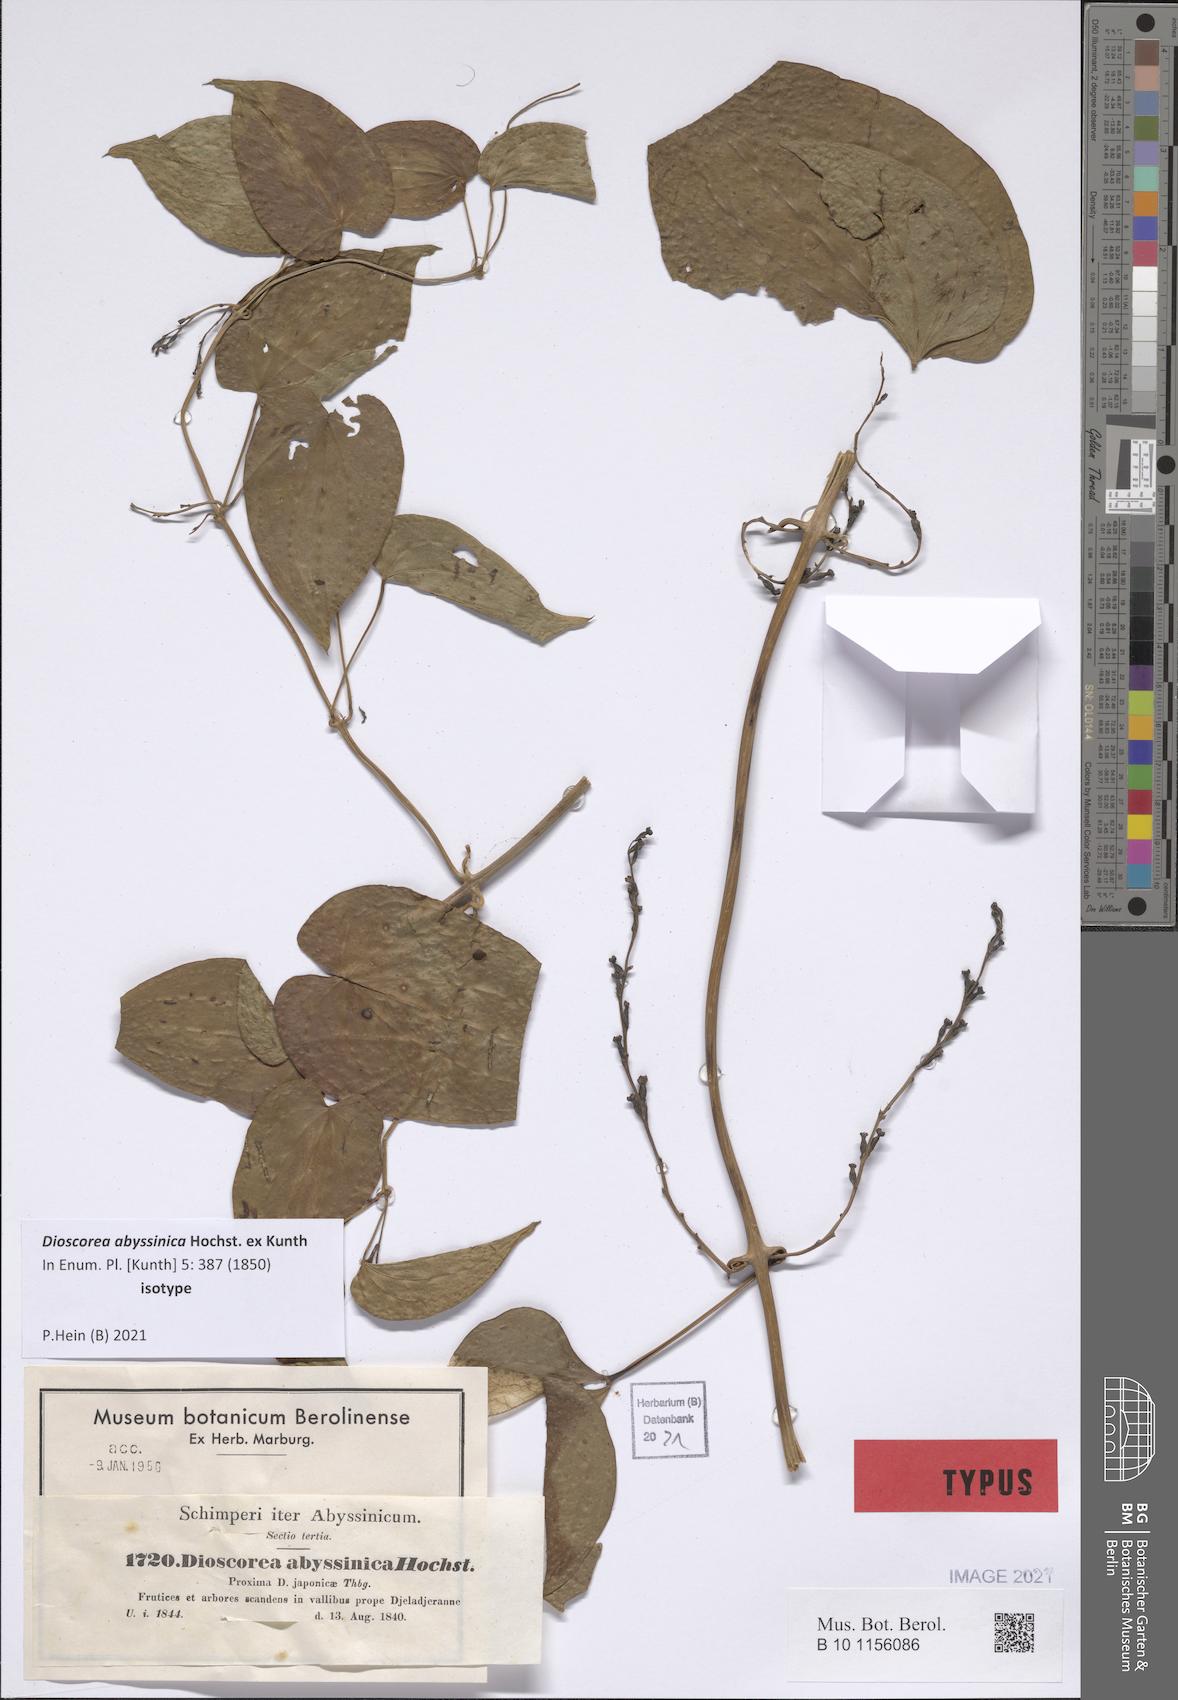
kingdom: Plantae
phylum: Tracheophyta
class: Liliopsida
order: Dioscoreales
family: Dioscoreaceae
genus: Dioscorea
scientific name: Dioscorea abyssinica
